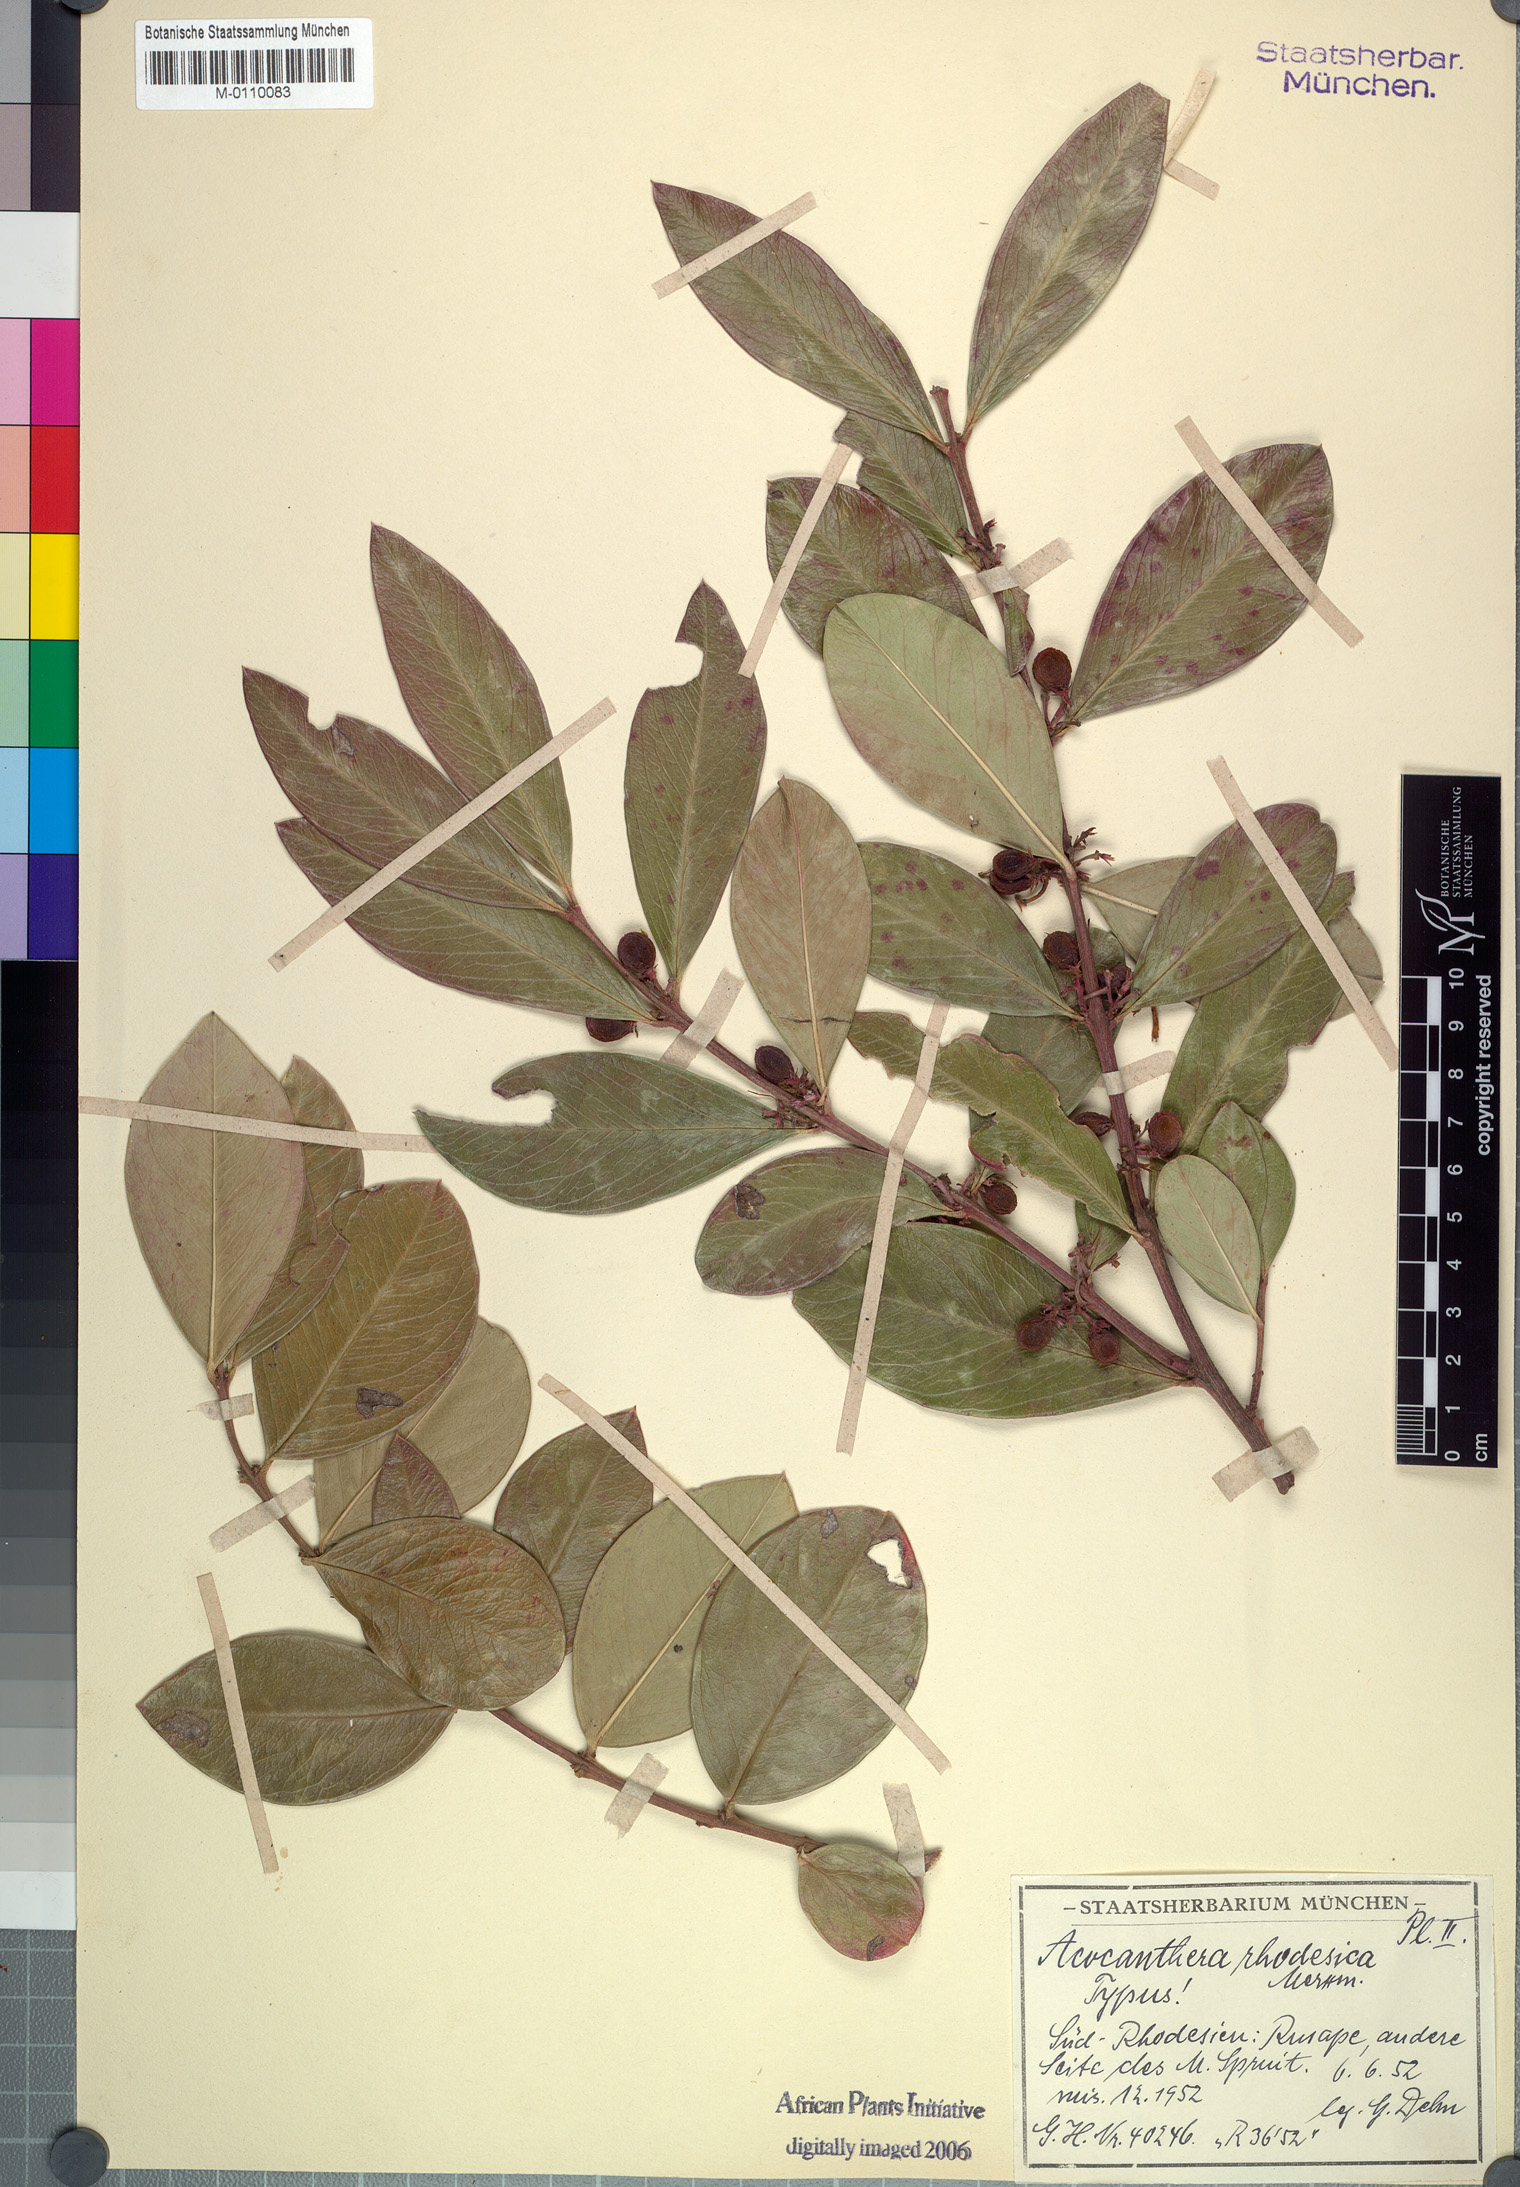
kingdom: Plantae
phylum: Tracheophyta
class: Magnoliopsida
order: Gentianales
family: Apocynaceae
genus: Acokanthera
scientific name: Acokanthera oppositifolia
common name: Bushman's-poison
